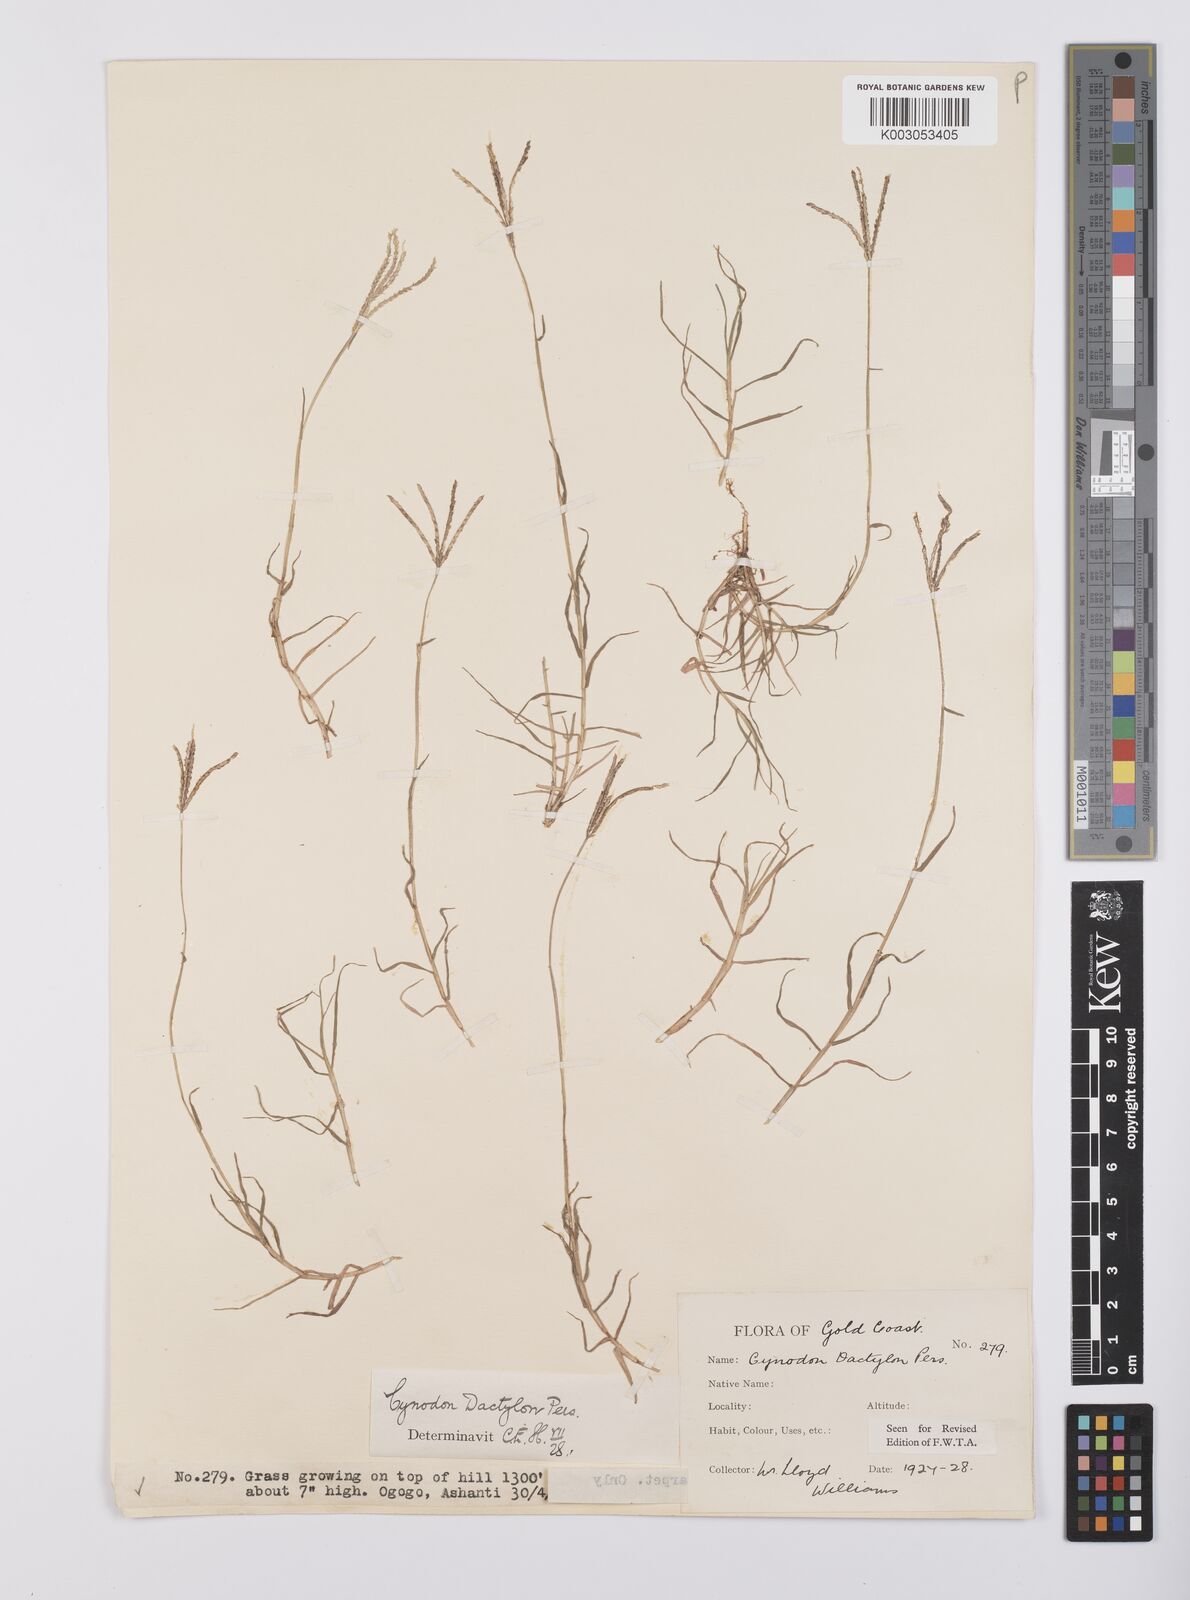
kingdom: Plantae
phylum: Tracheophyta
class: Liliopsida
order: Poales
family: Poaceae
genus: Cynodon
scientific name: Cynodon dactylon
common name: Bermuda grass
